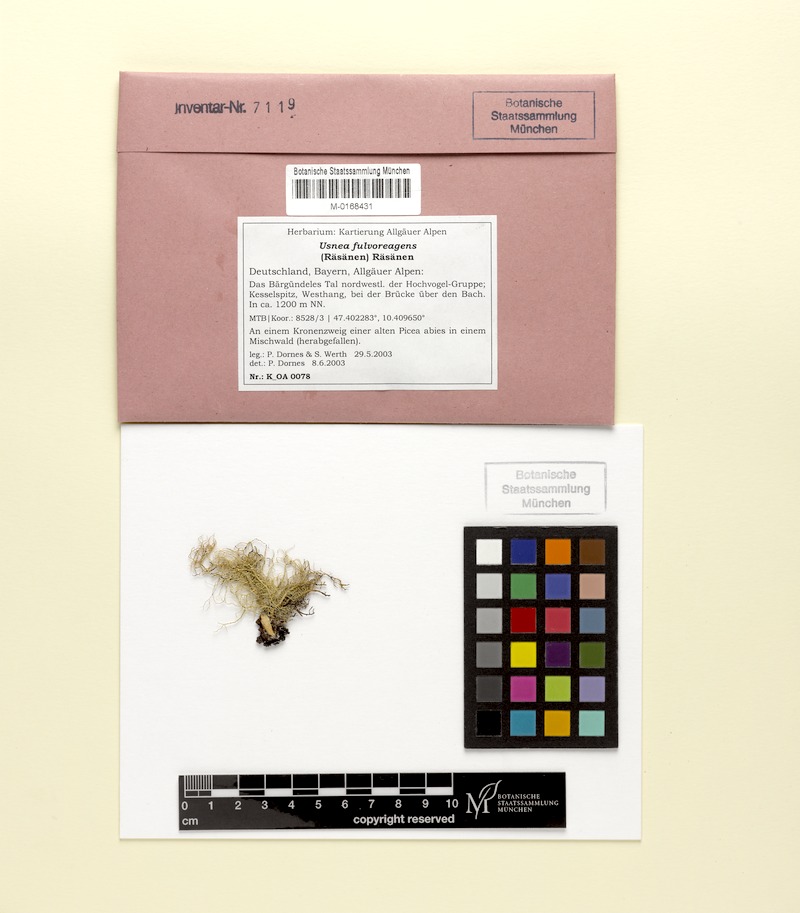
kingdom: Fungi
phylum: Ascomycota
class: Lecanoromycetes
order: Lecanorales
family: Parmeliaceae
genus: Usnea
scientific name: Usnea fulvoreagens
